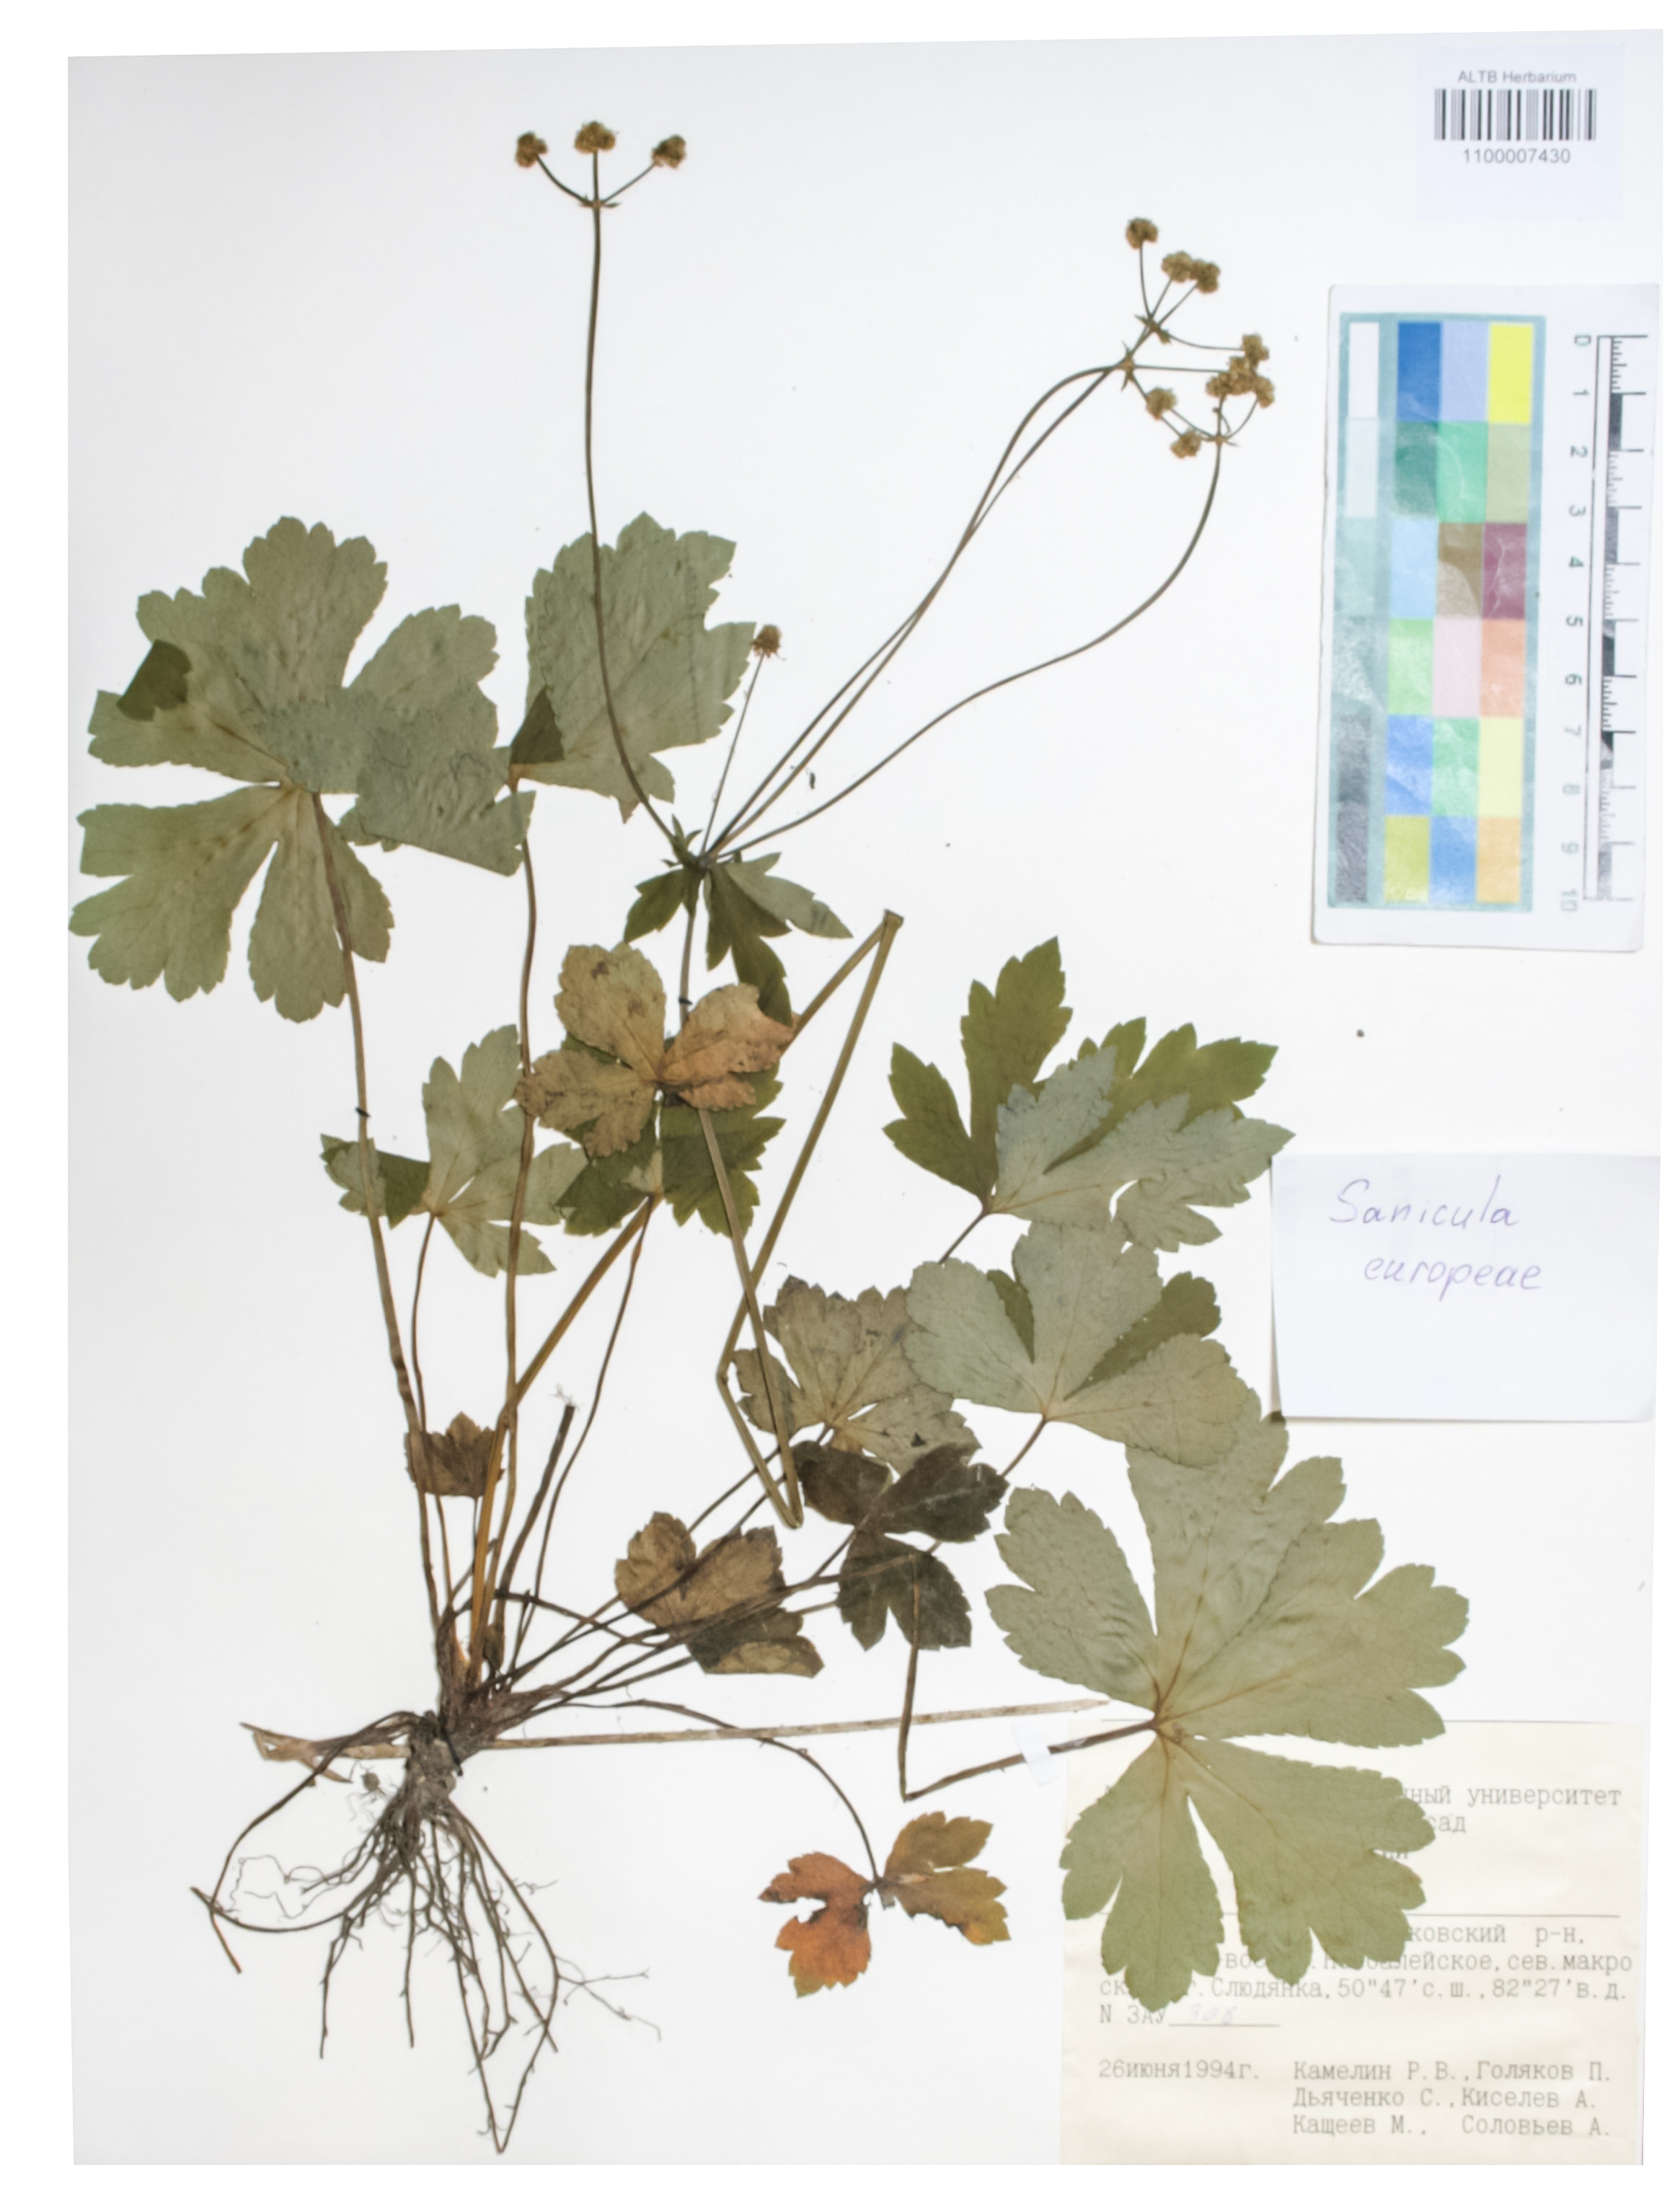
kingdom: Plantae
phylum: Tracheophyta
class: Magnoliopsida
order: Apiales
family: Apiaceae
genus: Sanicula
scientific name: Sanicula europaea
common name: Sanicle
